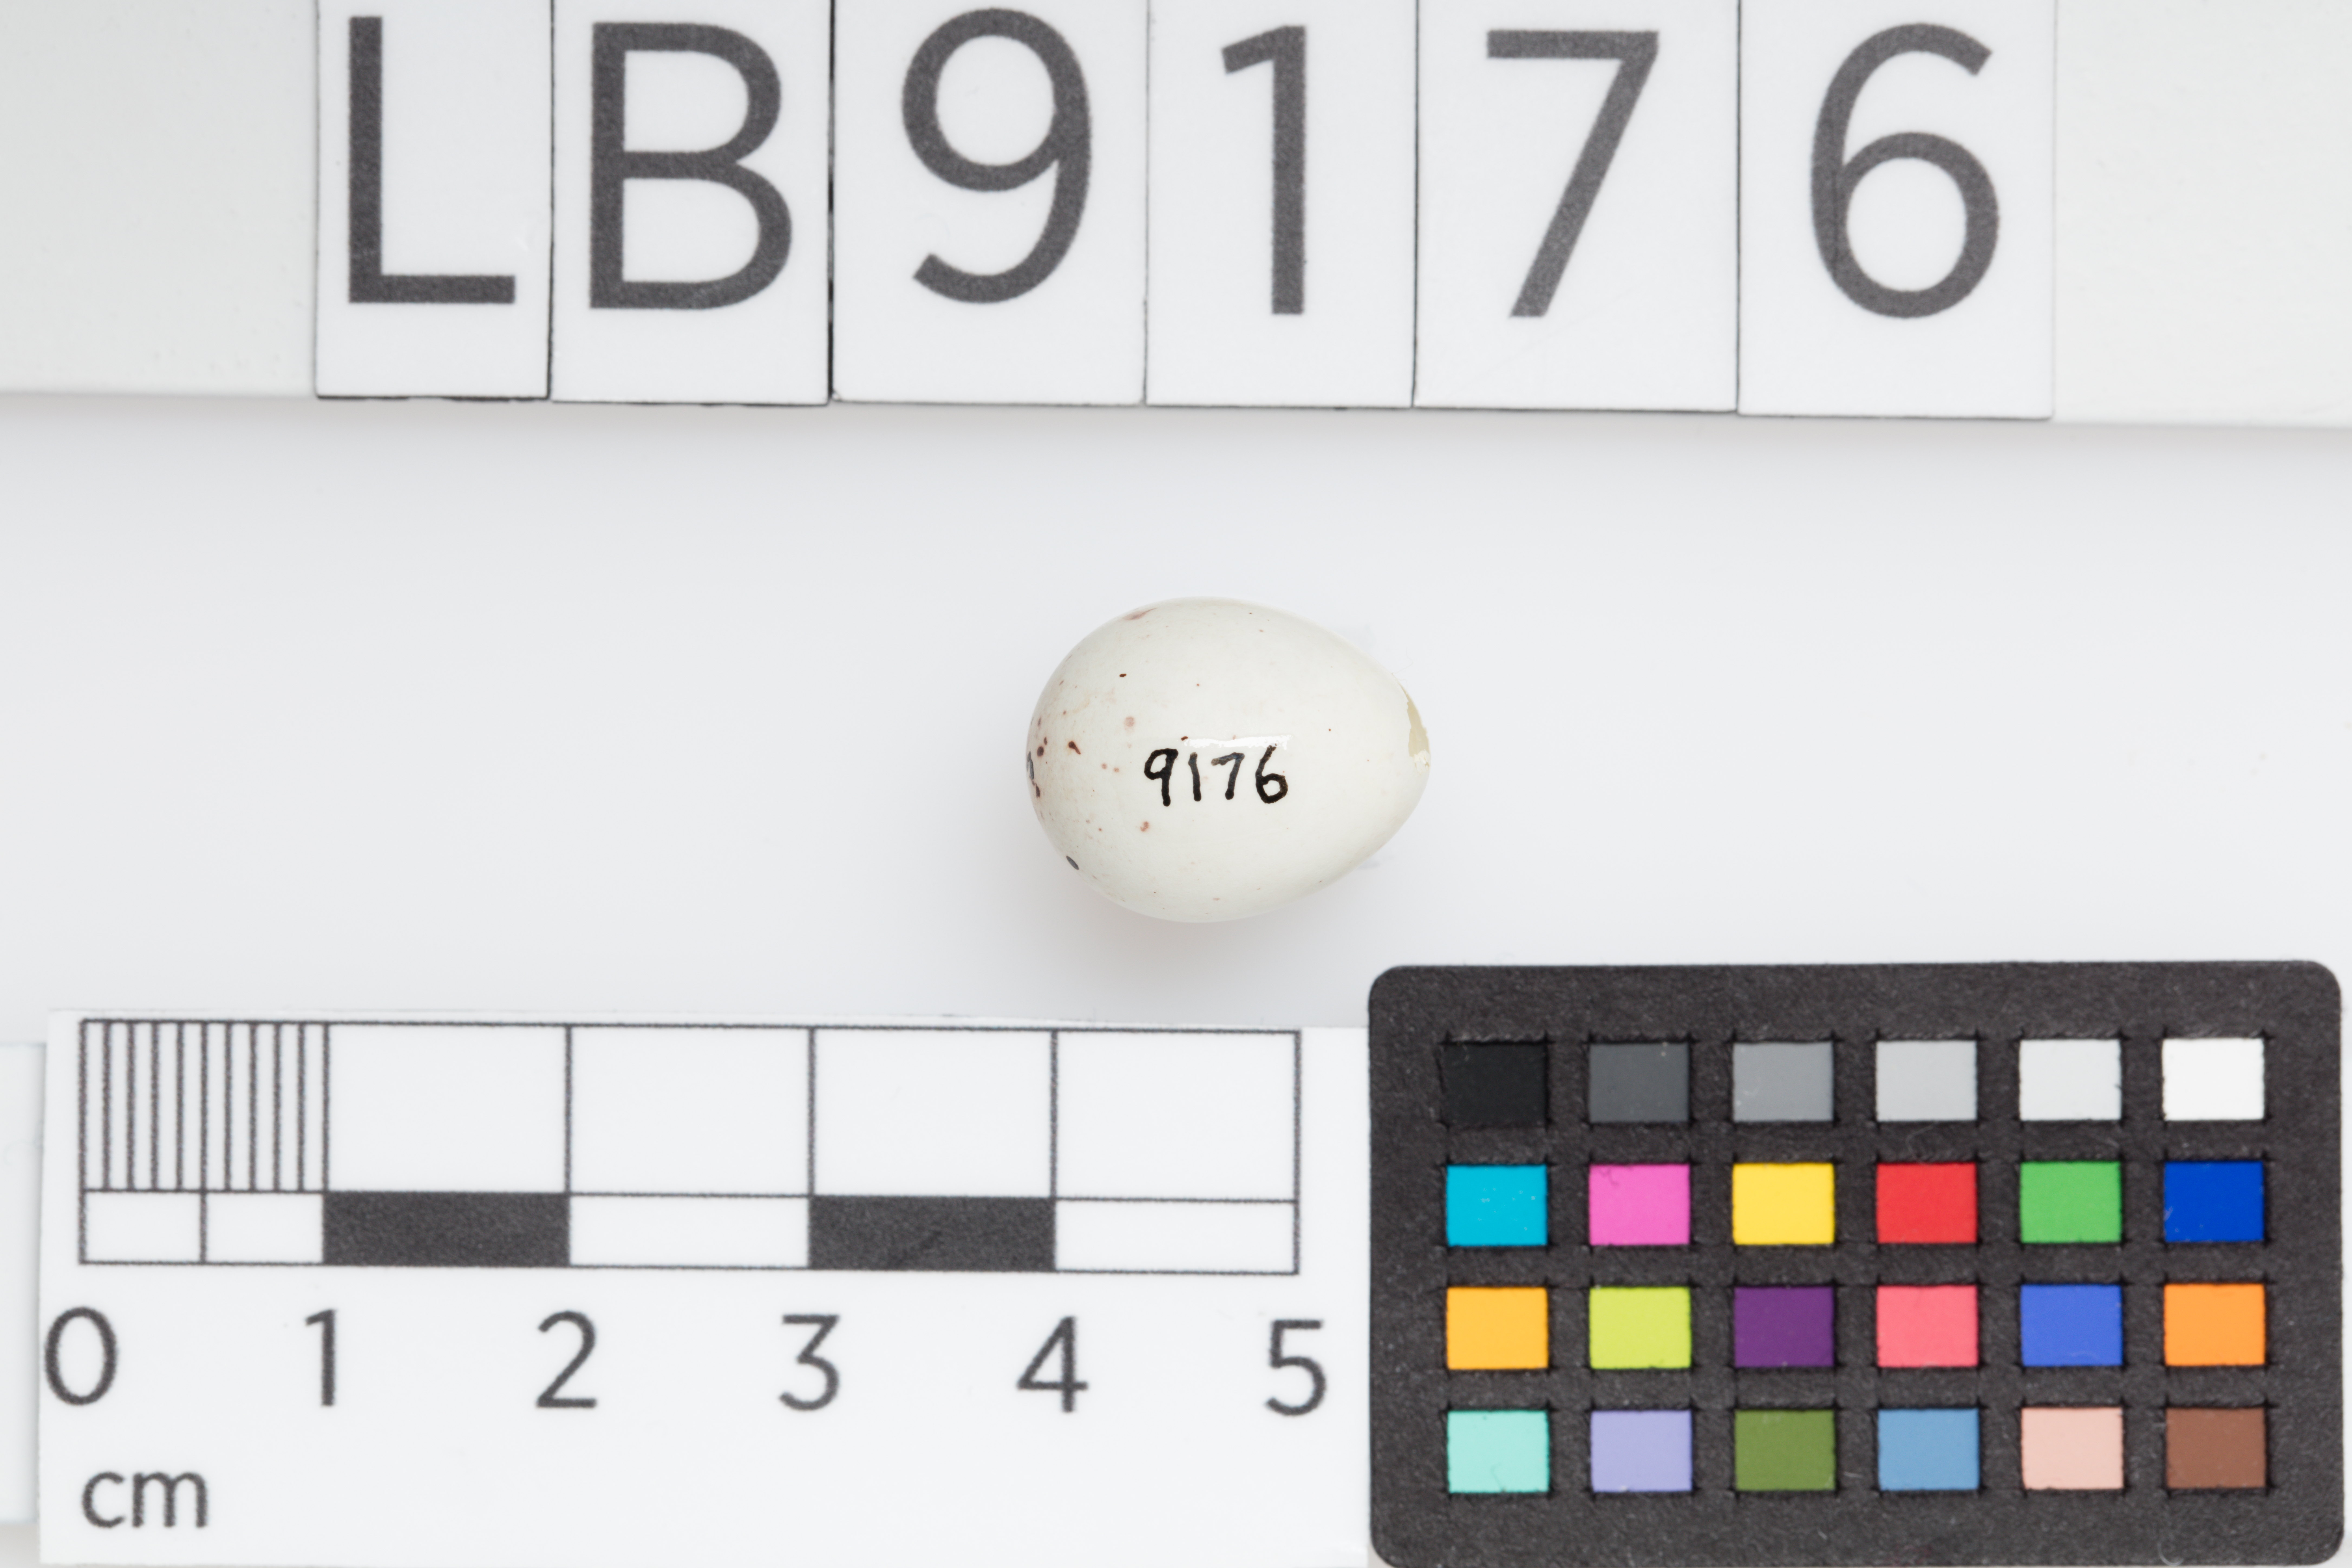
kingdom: Animalia
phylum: Chordata
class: Aves
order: Passeriformes
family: Fringillidae
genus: Carduelis
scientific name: Carduelis carduelis
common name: European goldfinch
